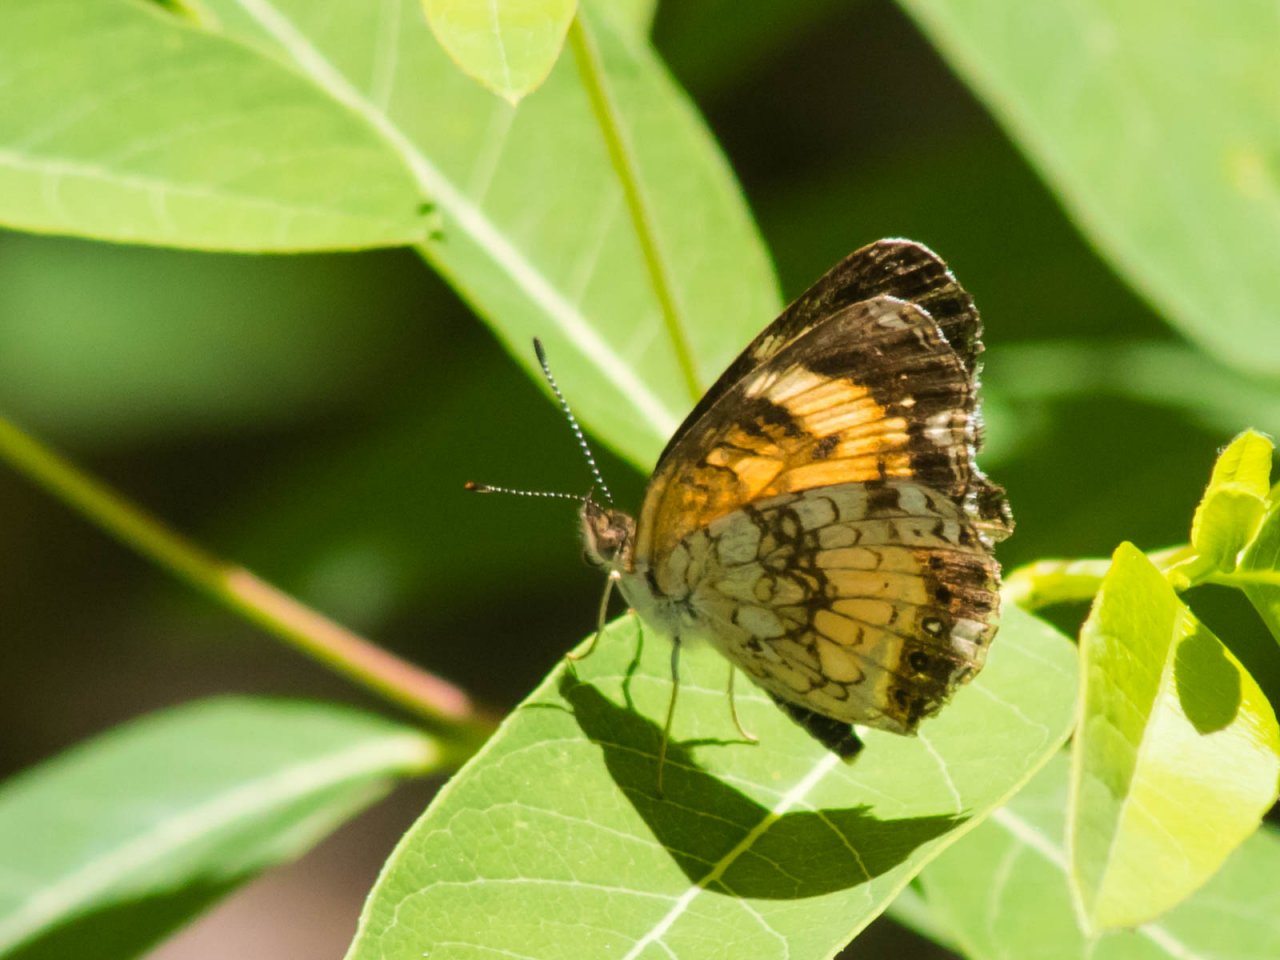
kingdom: Animalia
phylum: Arthropoda
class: Insecta
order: Lepidoptera
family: Nymphalidae
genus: Chlosyne
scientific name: Chlosyne nycteis
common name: Silvery Checkerspot
